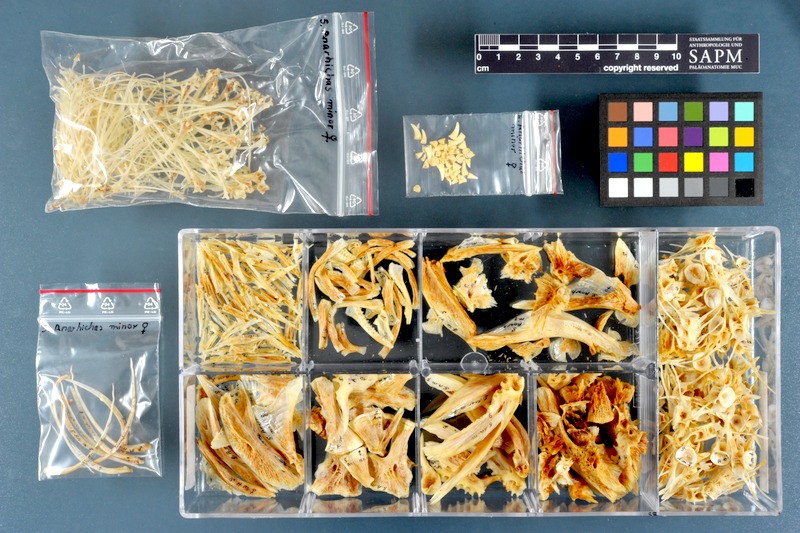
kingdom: Animalia
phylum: Chordata
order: Perciformes
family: Anarhichadidae
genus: Anarhichas
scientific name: Anarhichas minor
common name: Spotted catfish
